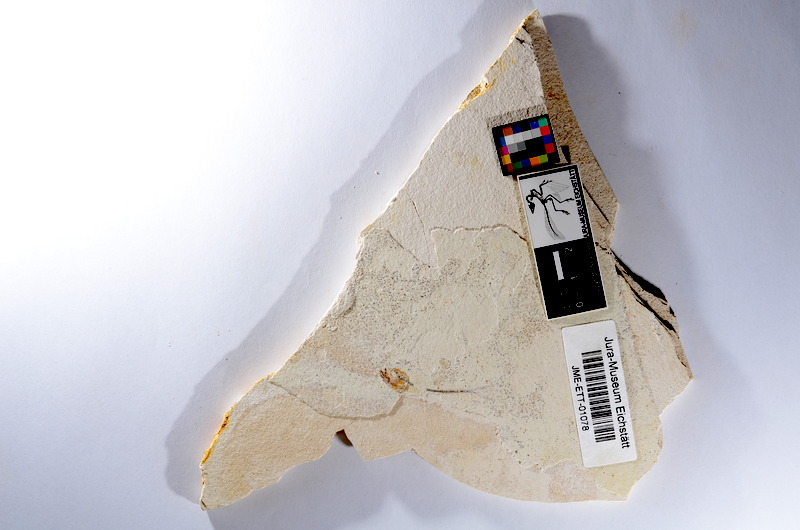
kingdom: Animalia
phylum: Chordata
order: Salmoniformes
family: Orthogonikleithridae
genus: Orthogonikleithrus
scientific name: Orthogonikleithrus hoelli
